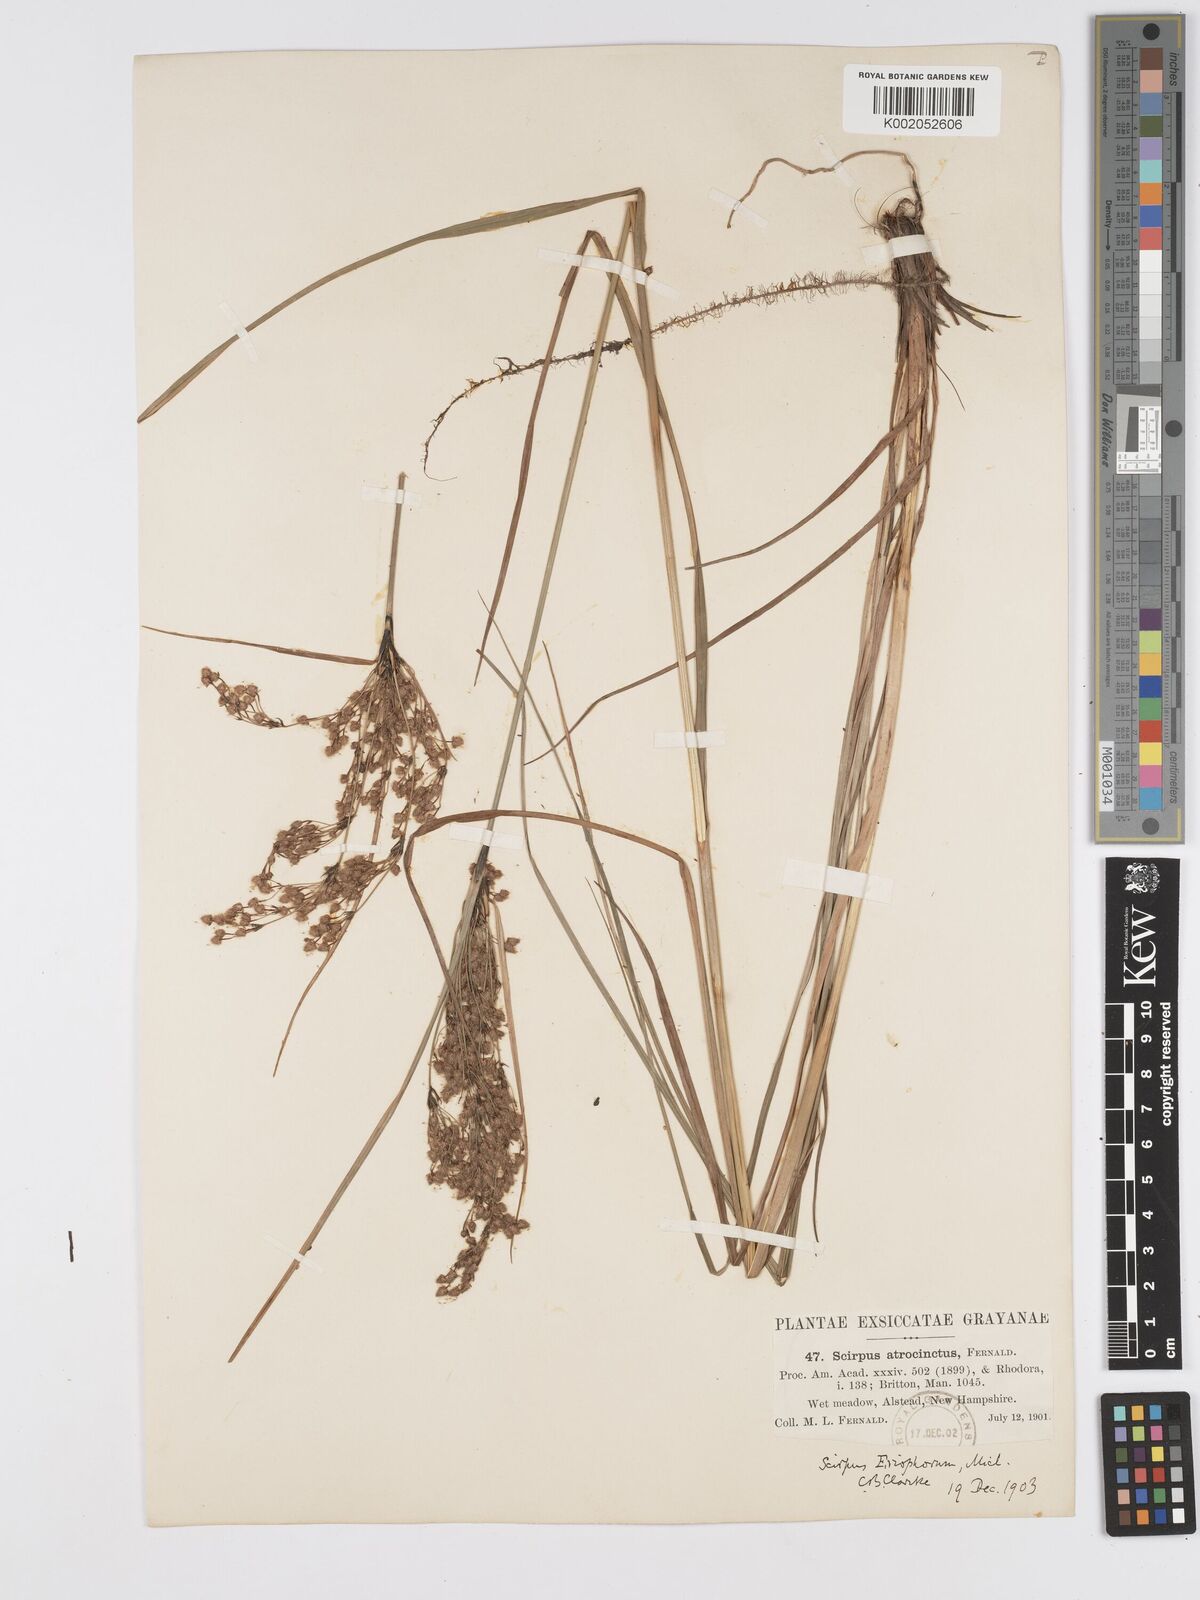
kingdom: Plantae
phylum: Tracheophyta
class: Liliopsida
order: Poales
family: Cyperaceae
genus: Scirpus
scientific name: Scirpus atrocinctus
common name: Black-girdled bulrush
